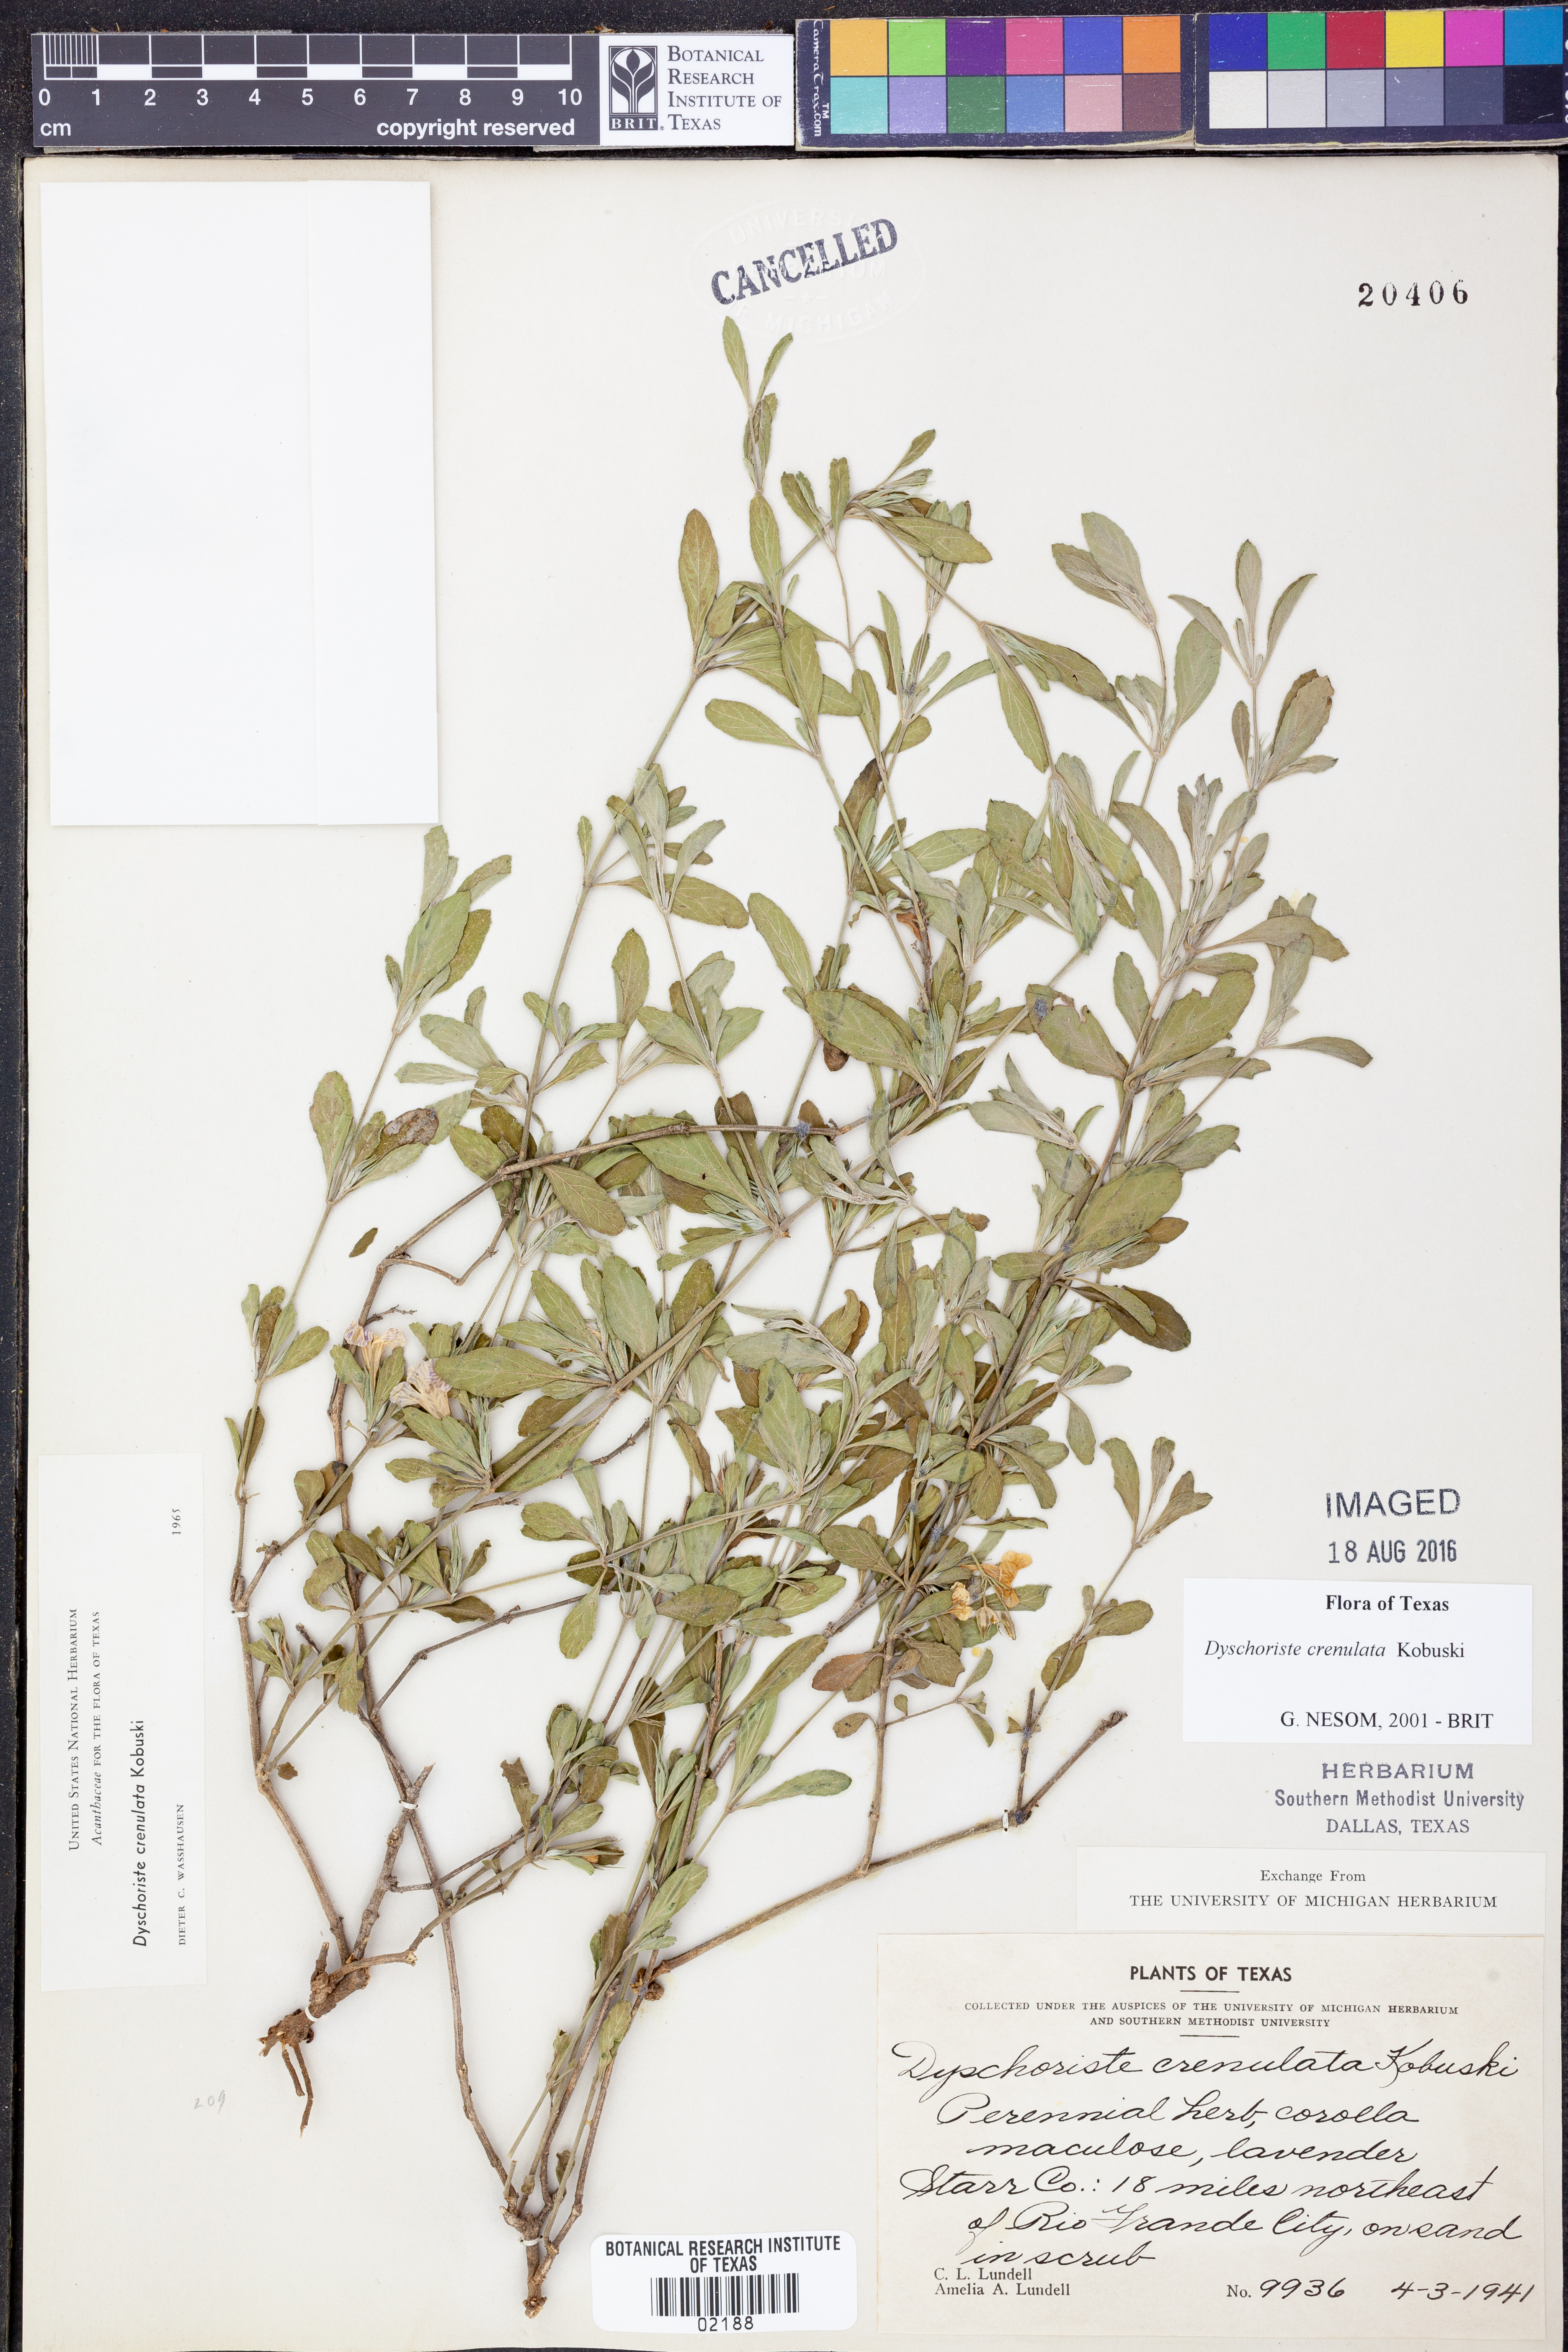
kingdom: Plantae
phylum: Tracheophyta
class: Magnoliopsida
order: Lamiales
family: Acanthaceae
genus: Dyschoriste
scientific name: Dyschoriste crenulata
